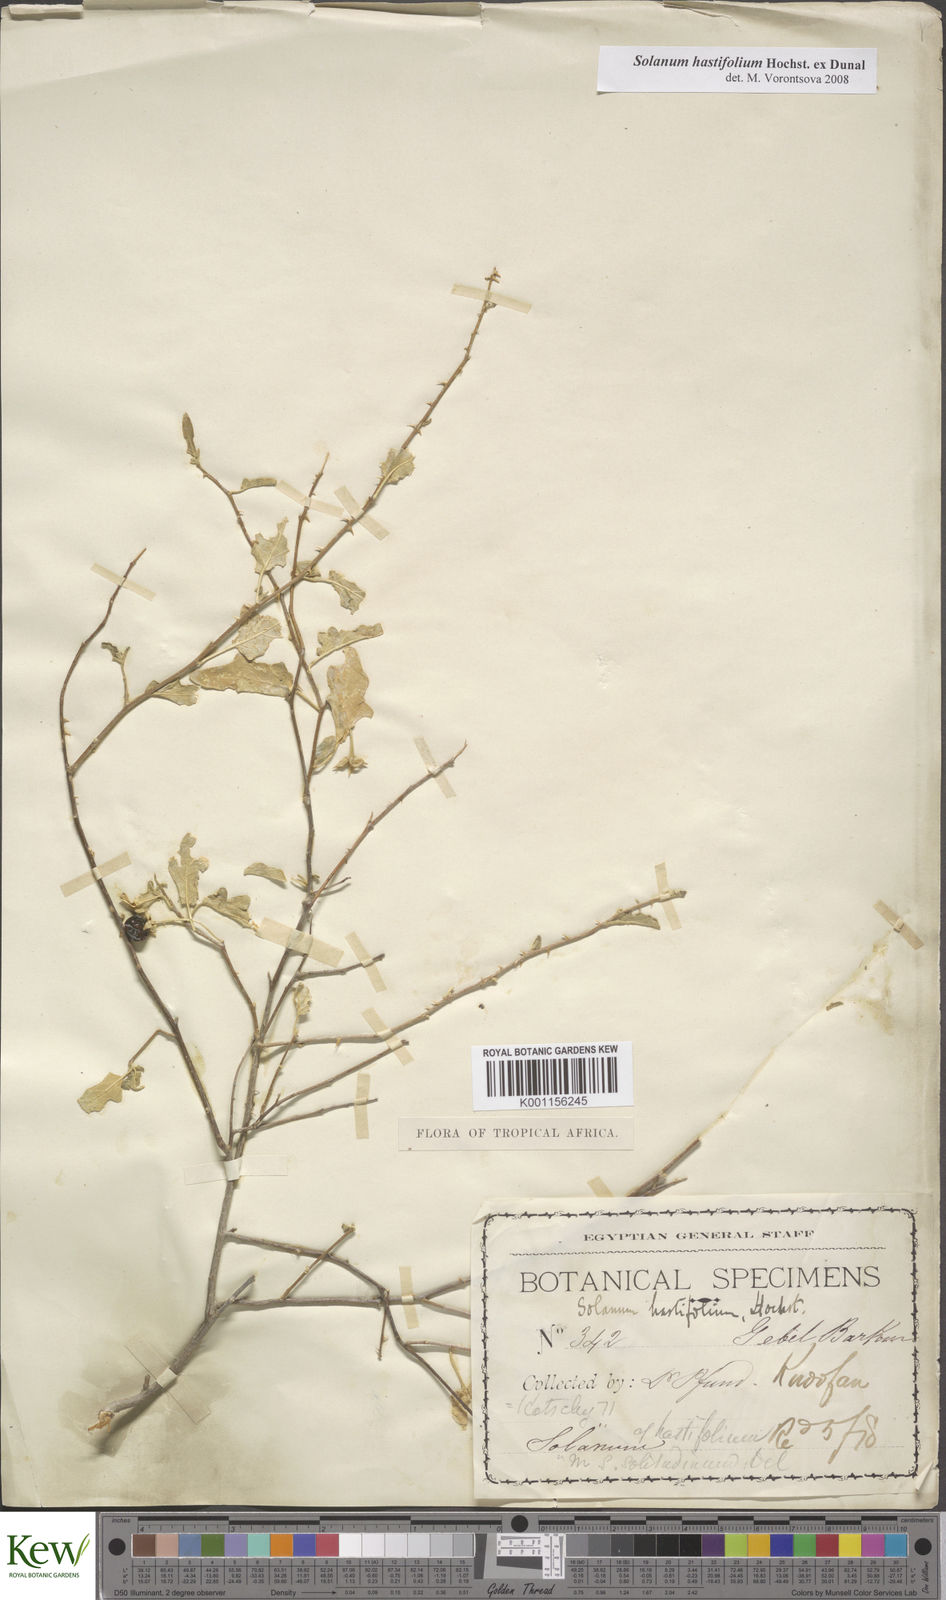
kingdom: Plantae
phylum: Tracheophyta
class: Magnoliopsida
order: Solanales
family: Solanaceae
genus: Solanum
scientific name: Solanum hastifolium
